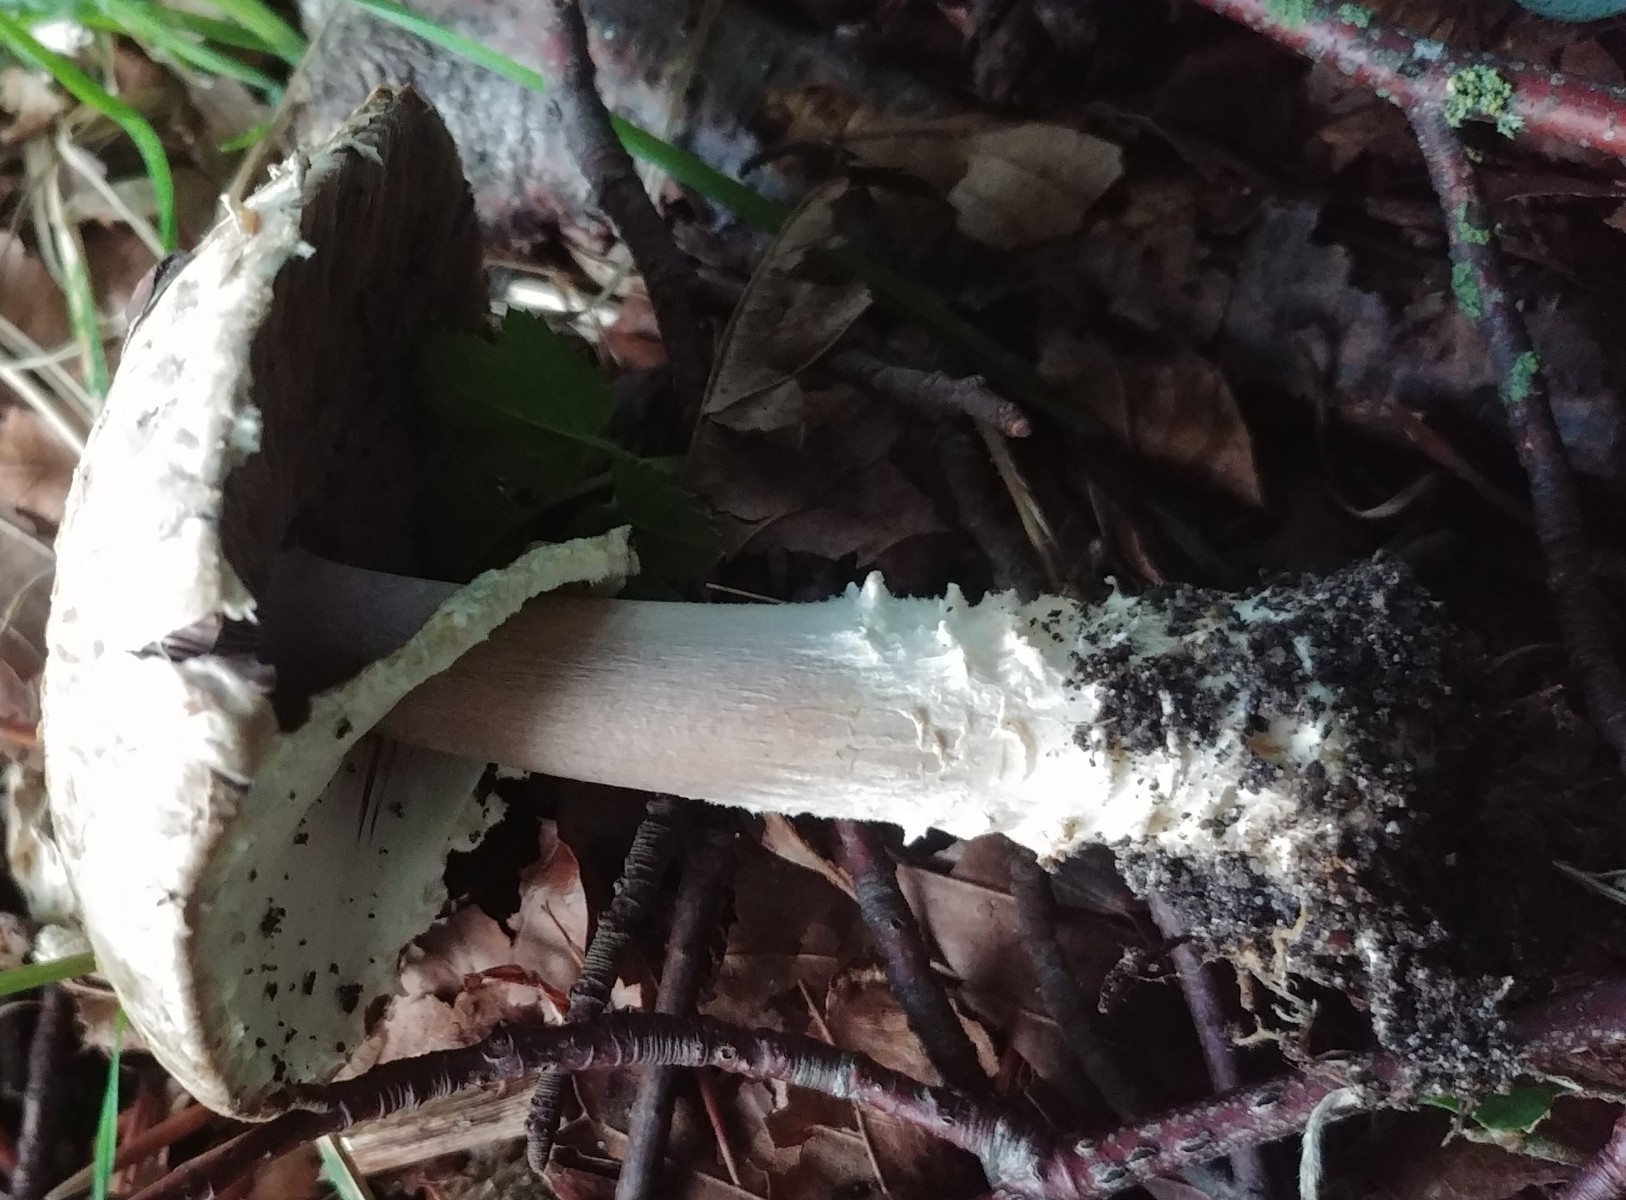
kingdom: Fungi
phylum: Basidiomycota
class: Agaricomycetes
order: Agaricales
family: Agaricaceae
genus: Agaricus
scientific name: Agaricus augustus
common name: prægtig champignon
